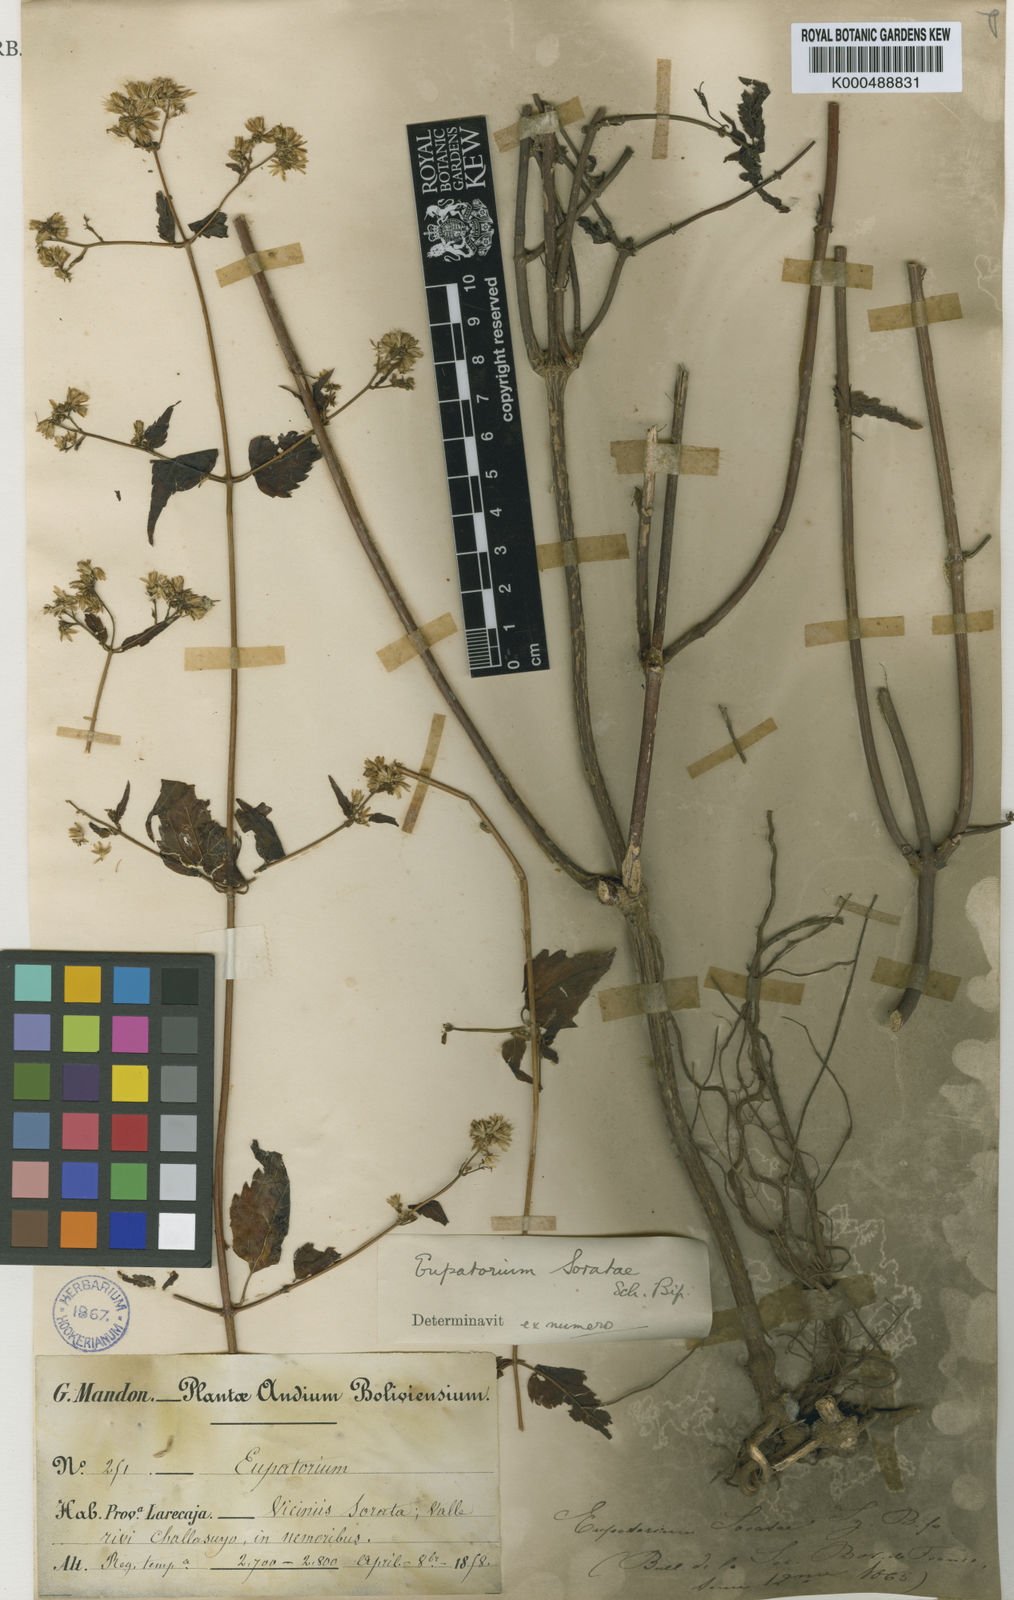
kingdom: Plantae
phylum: Tracheophyta
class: Magnoliopsida
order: Asterales
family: Asteraceae
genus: Fleischmannia
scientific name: Fleischmannia soratae
